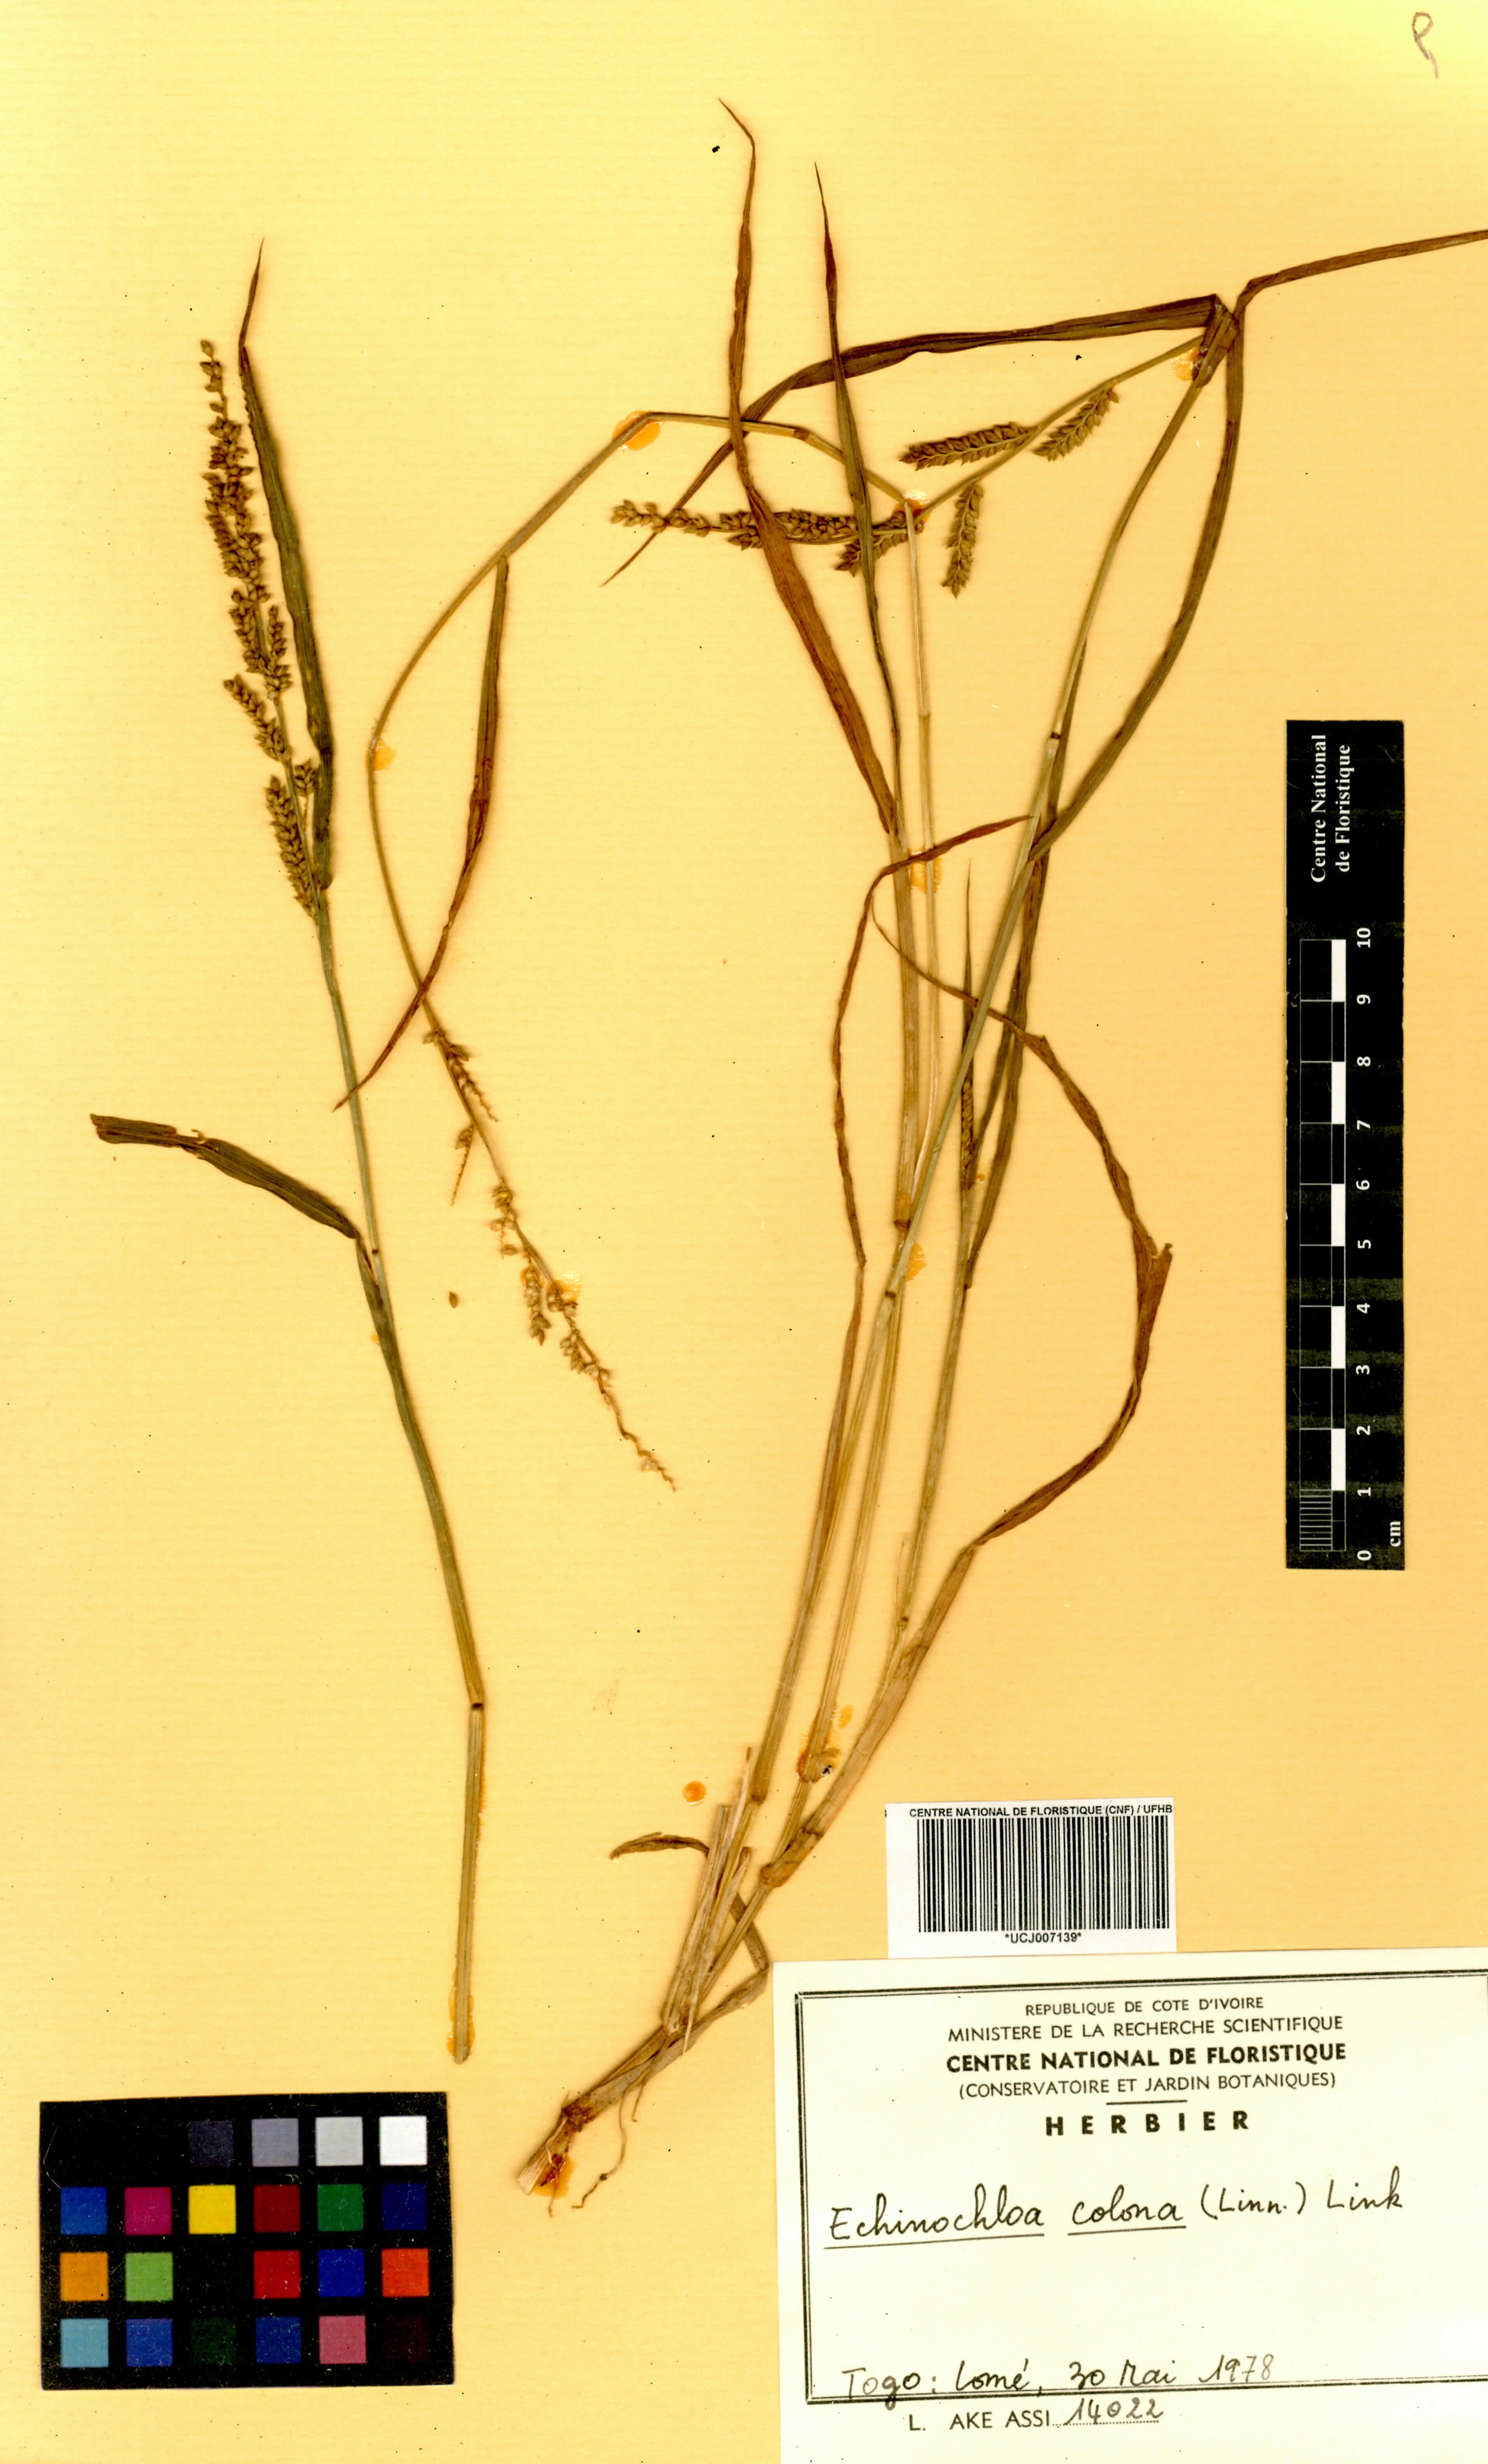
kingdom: Plantae
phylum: Tracheophyta
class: Liliopsida
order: Poales
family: Poaceae
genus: Echinochloa
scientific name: Echinochloa colonum
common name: Jungle rice
